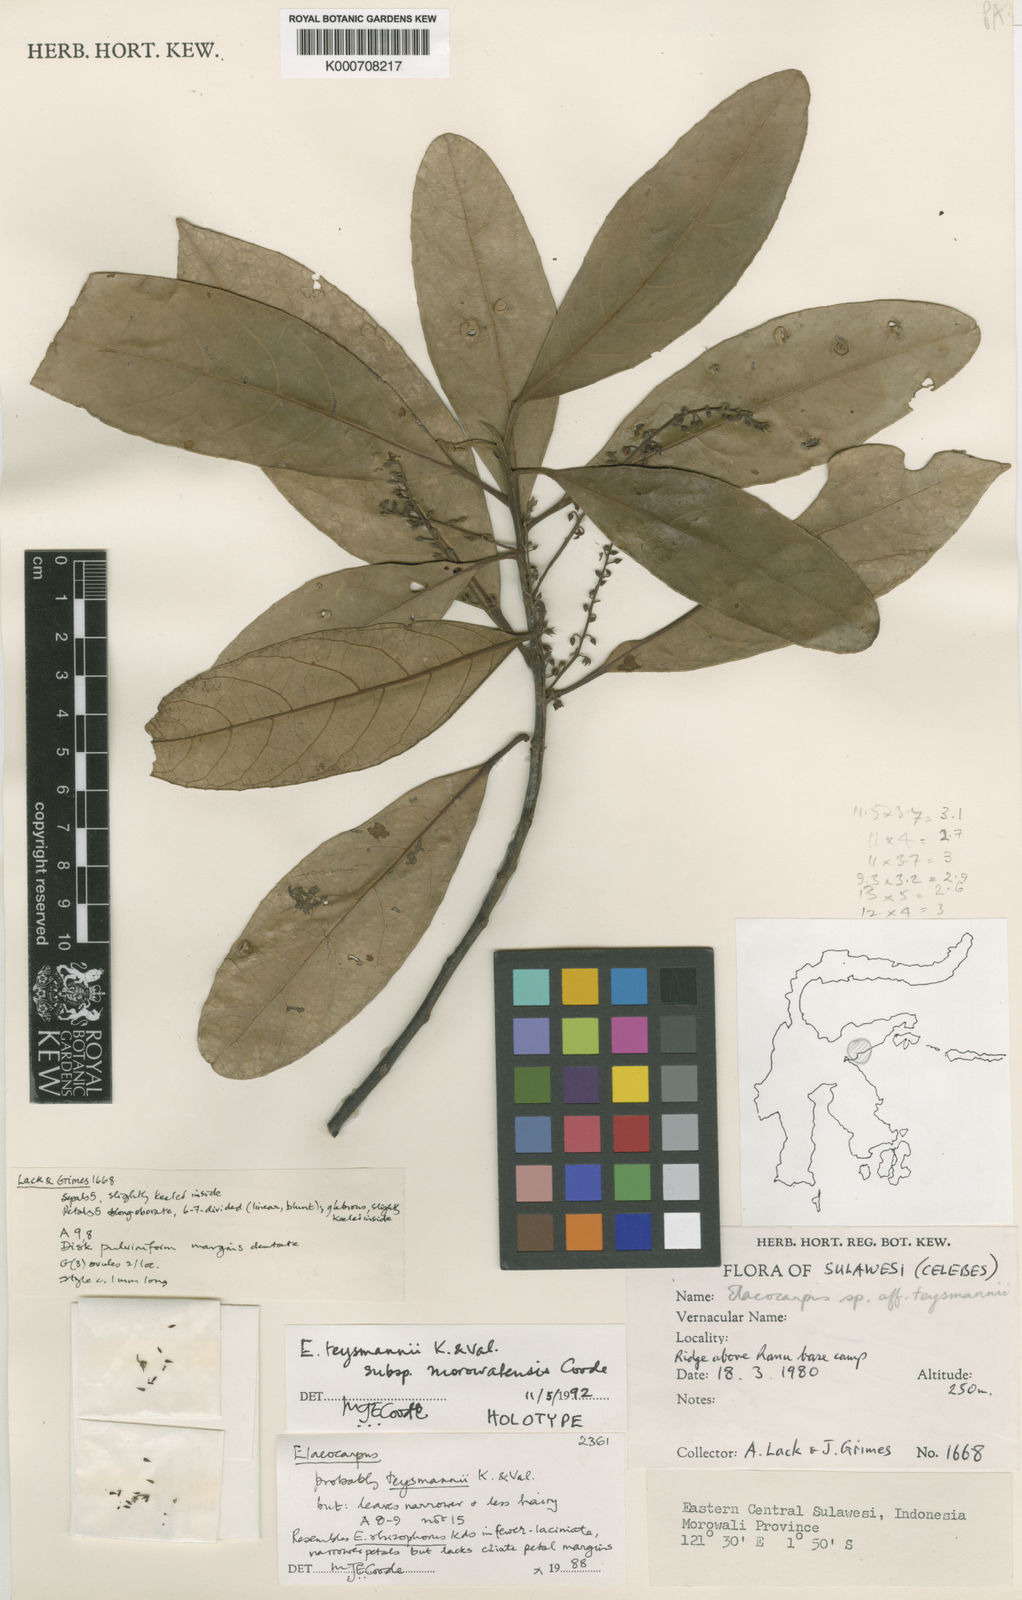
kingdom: Plantae
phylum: Tracheophyta
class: Magnoliopsida
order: Oxalidales
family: Elaeocarpaceae
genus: Elaeocarpus
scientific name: Elaeocarpus teysmannii
